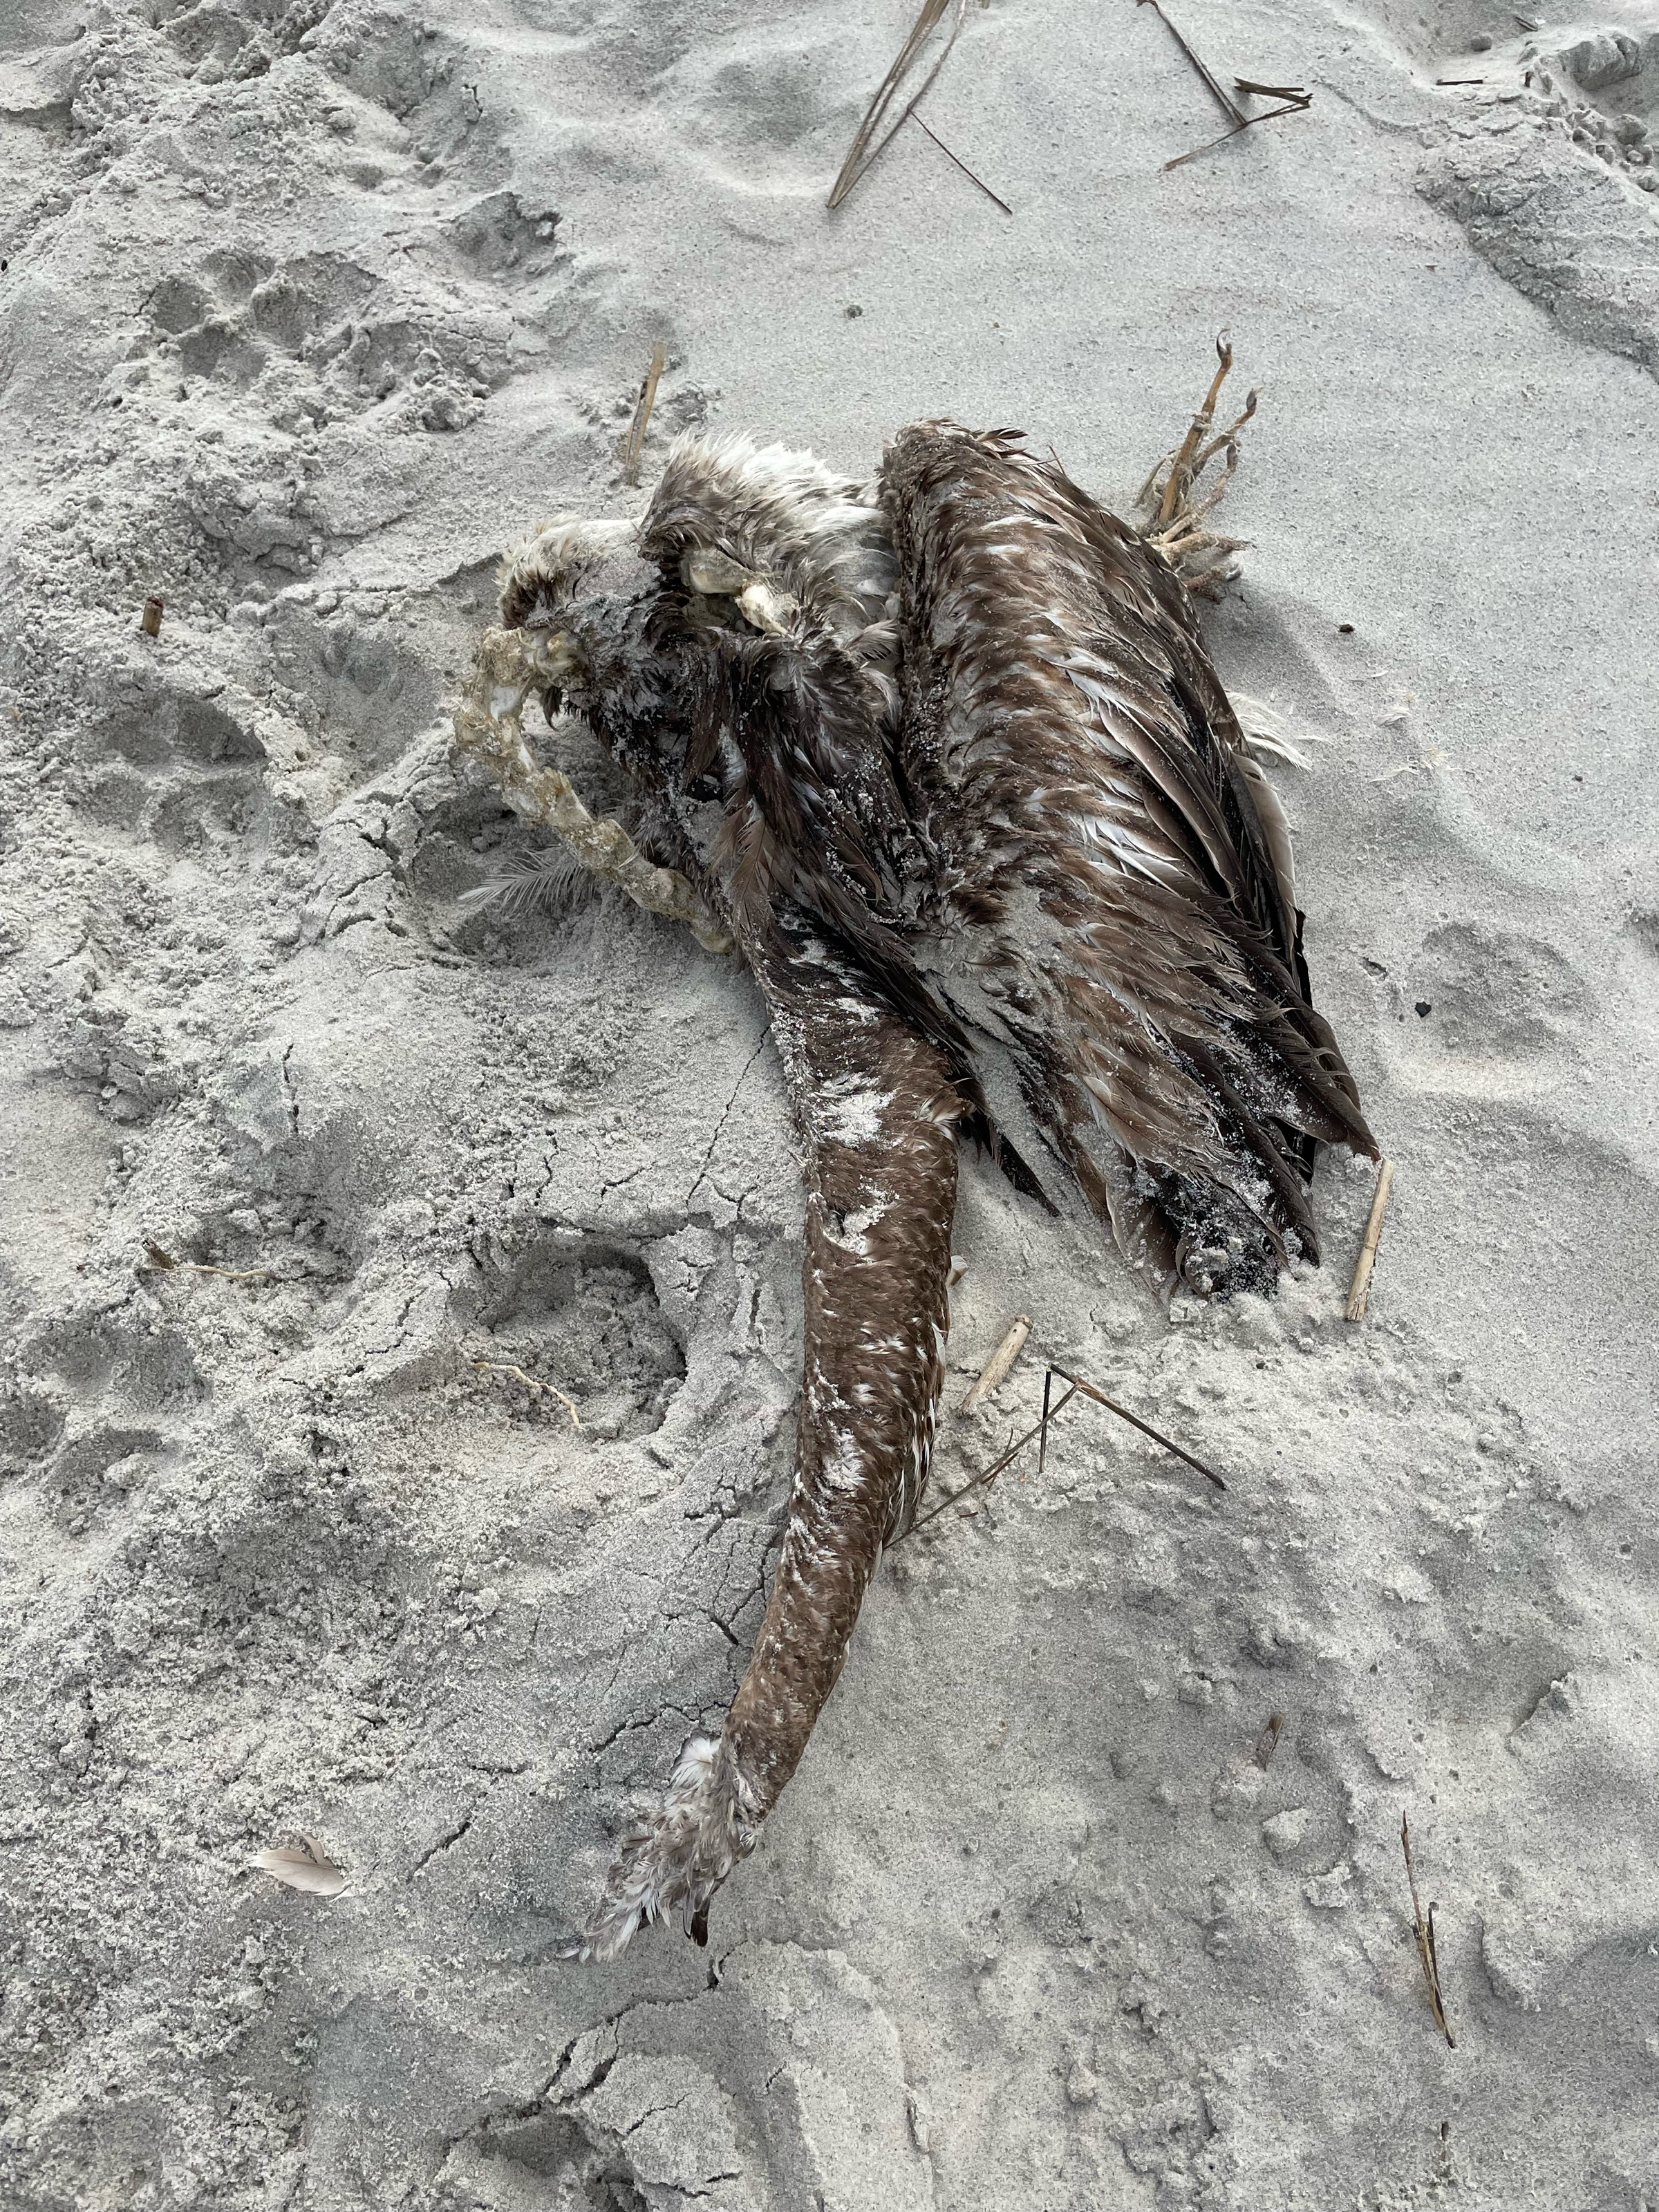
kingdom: Animalia
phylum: Chordata
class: Aves
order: Pelecaniformes
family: Pelecanidae
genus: Pelecanus
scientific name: Pelecanus occidentalis
